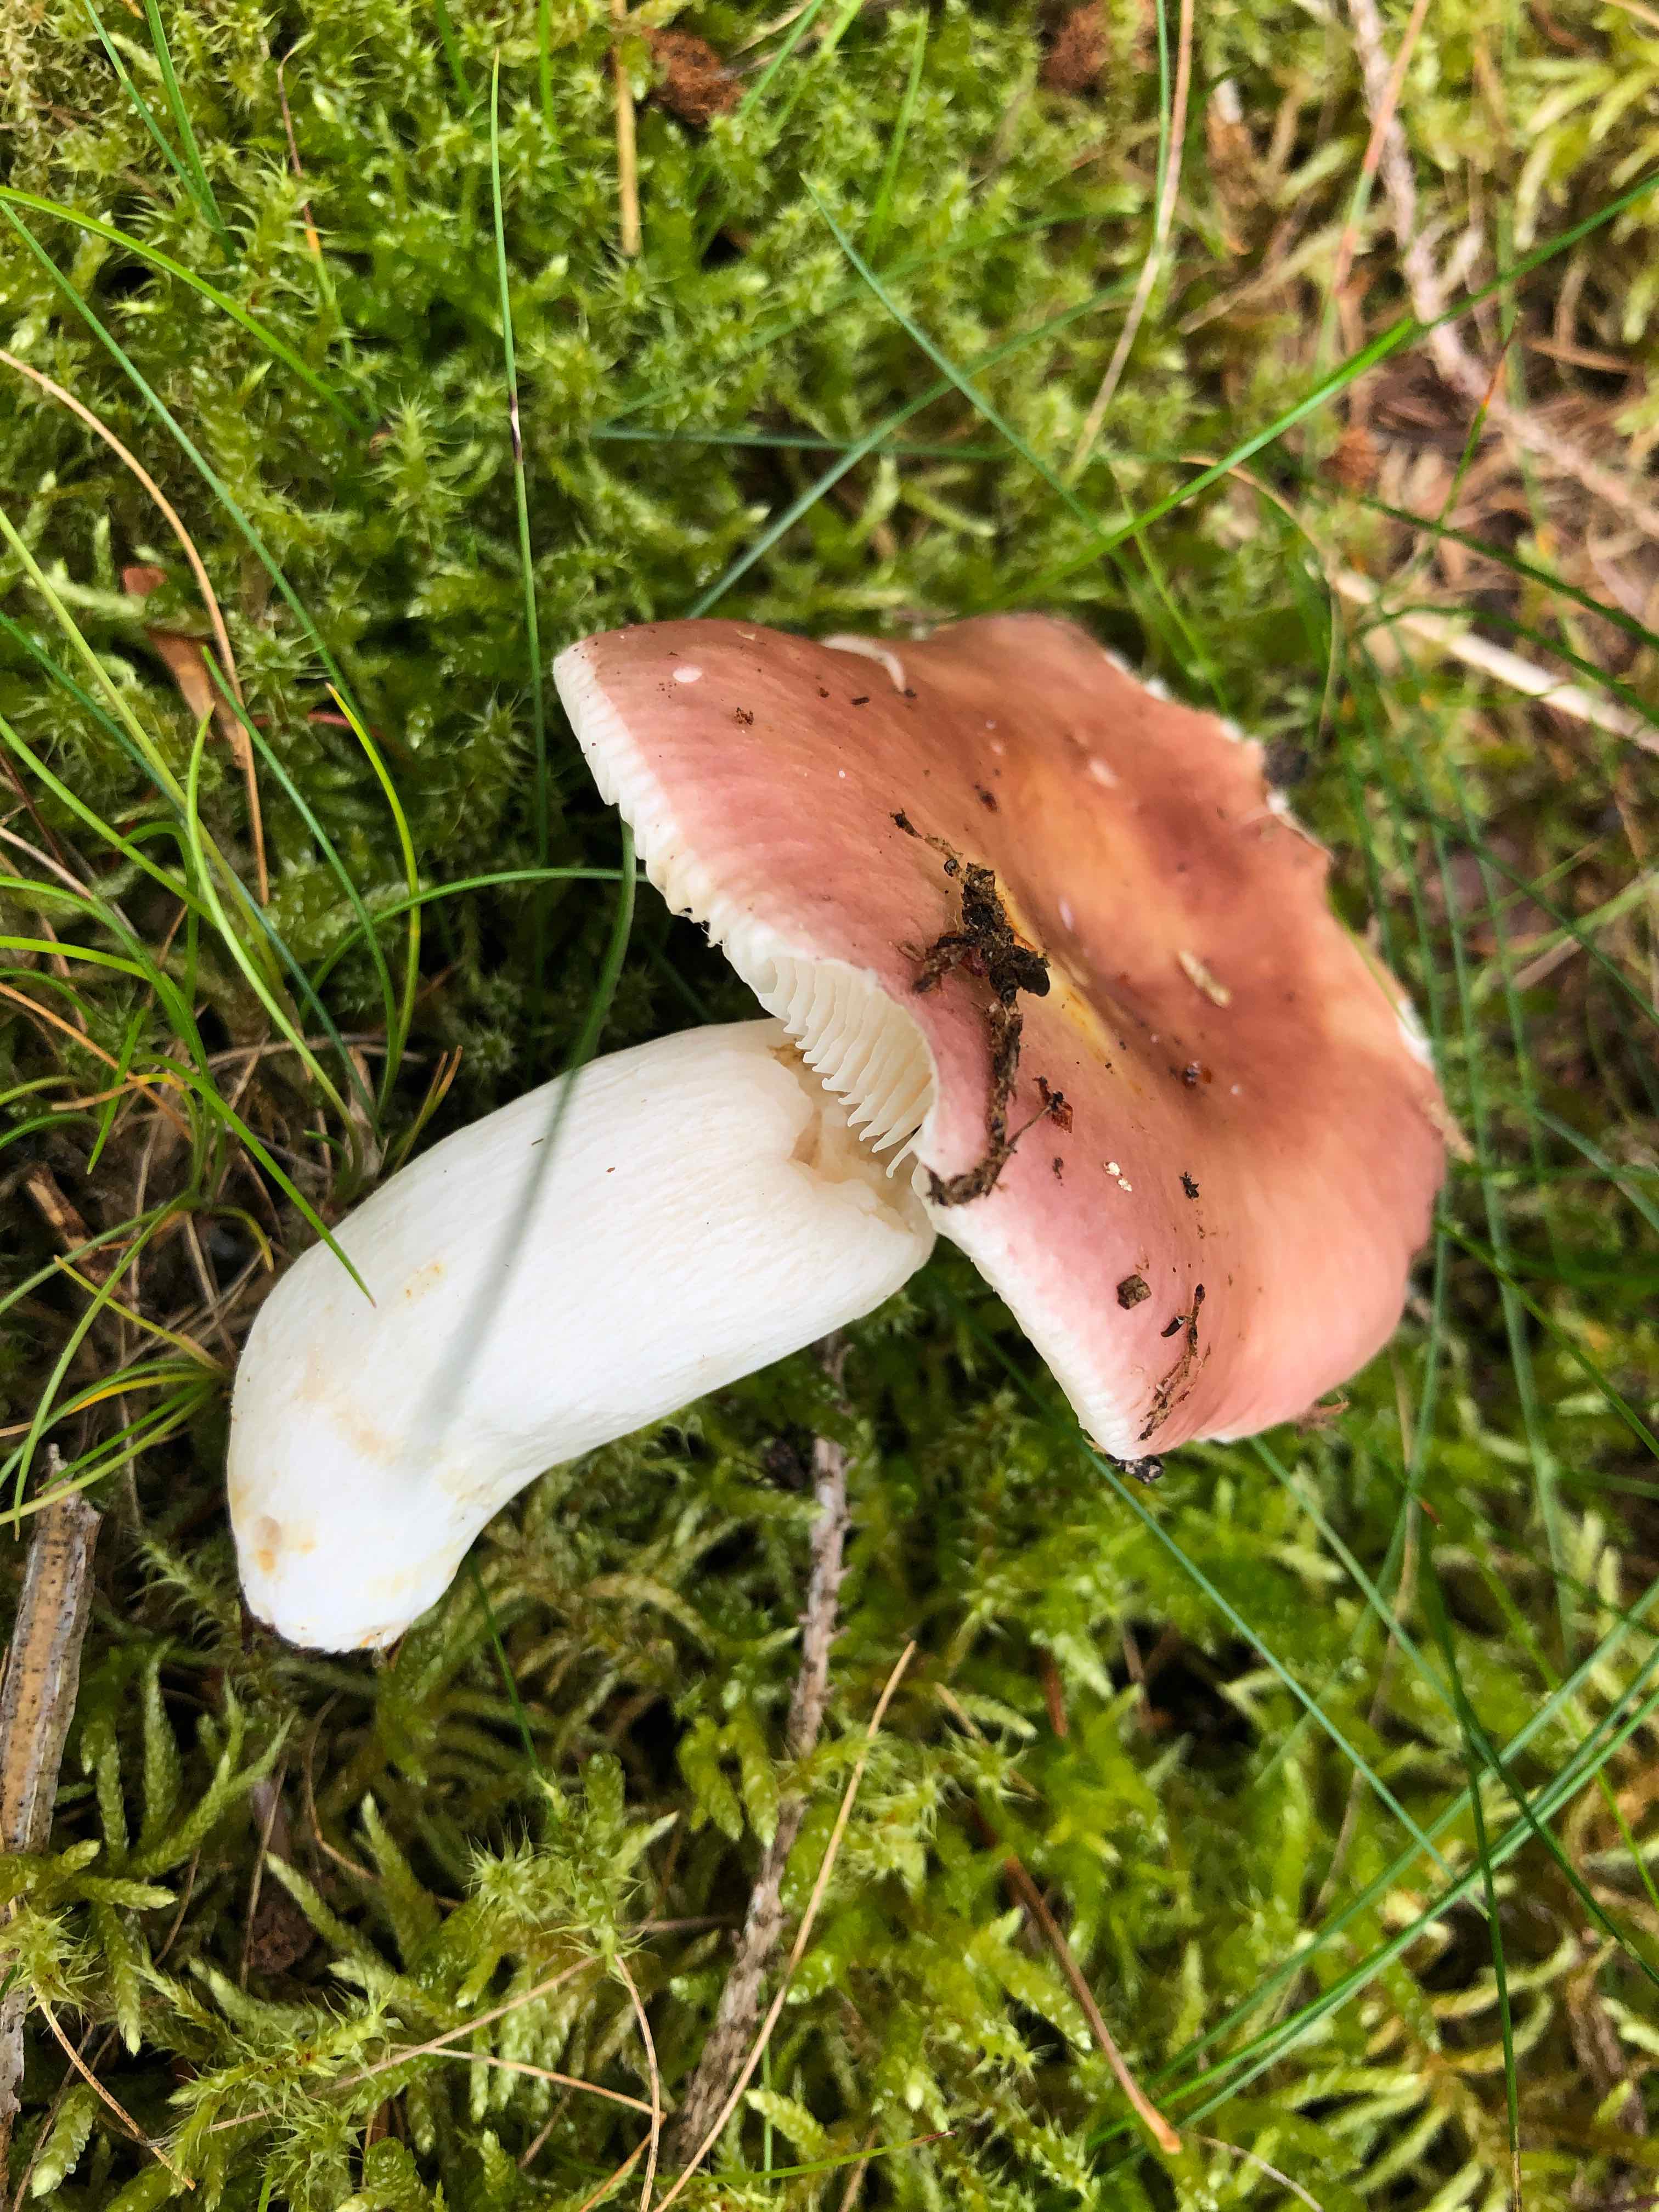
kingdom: Fungi
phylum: Basidiomycota
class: Agaricomycetes
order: Russulales
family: Russulaceae
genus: Russula
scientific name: Russula vesca
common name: spiselig skørhat
